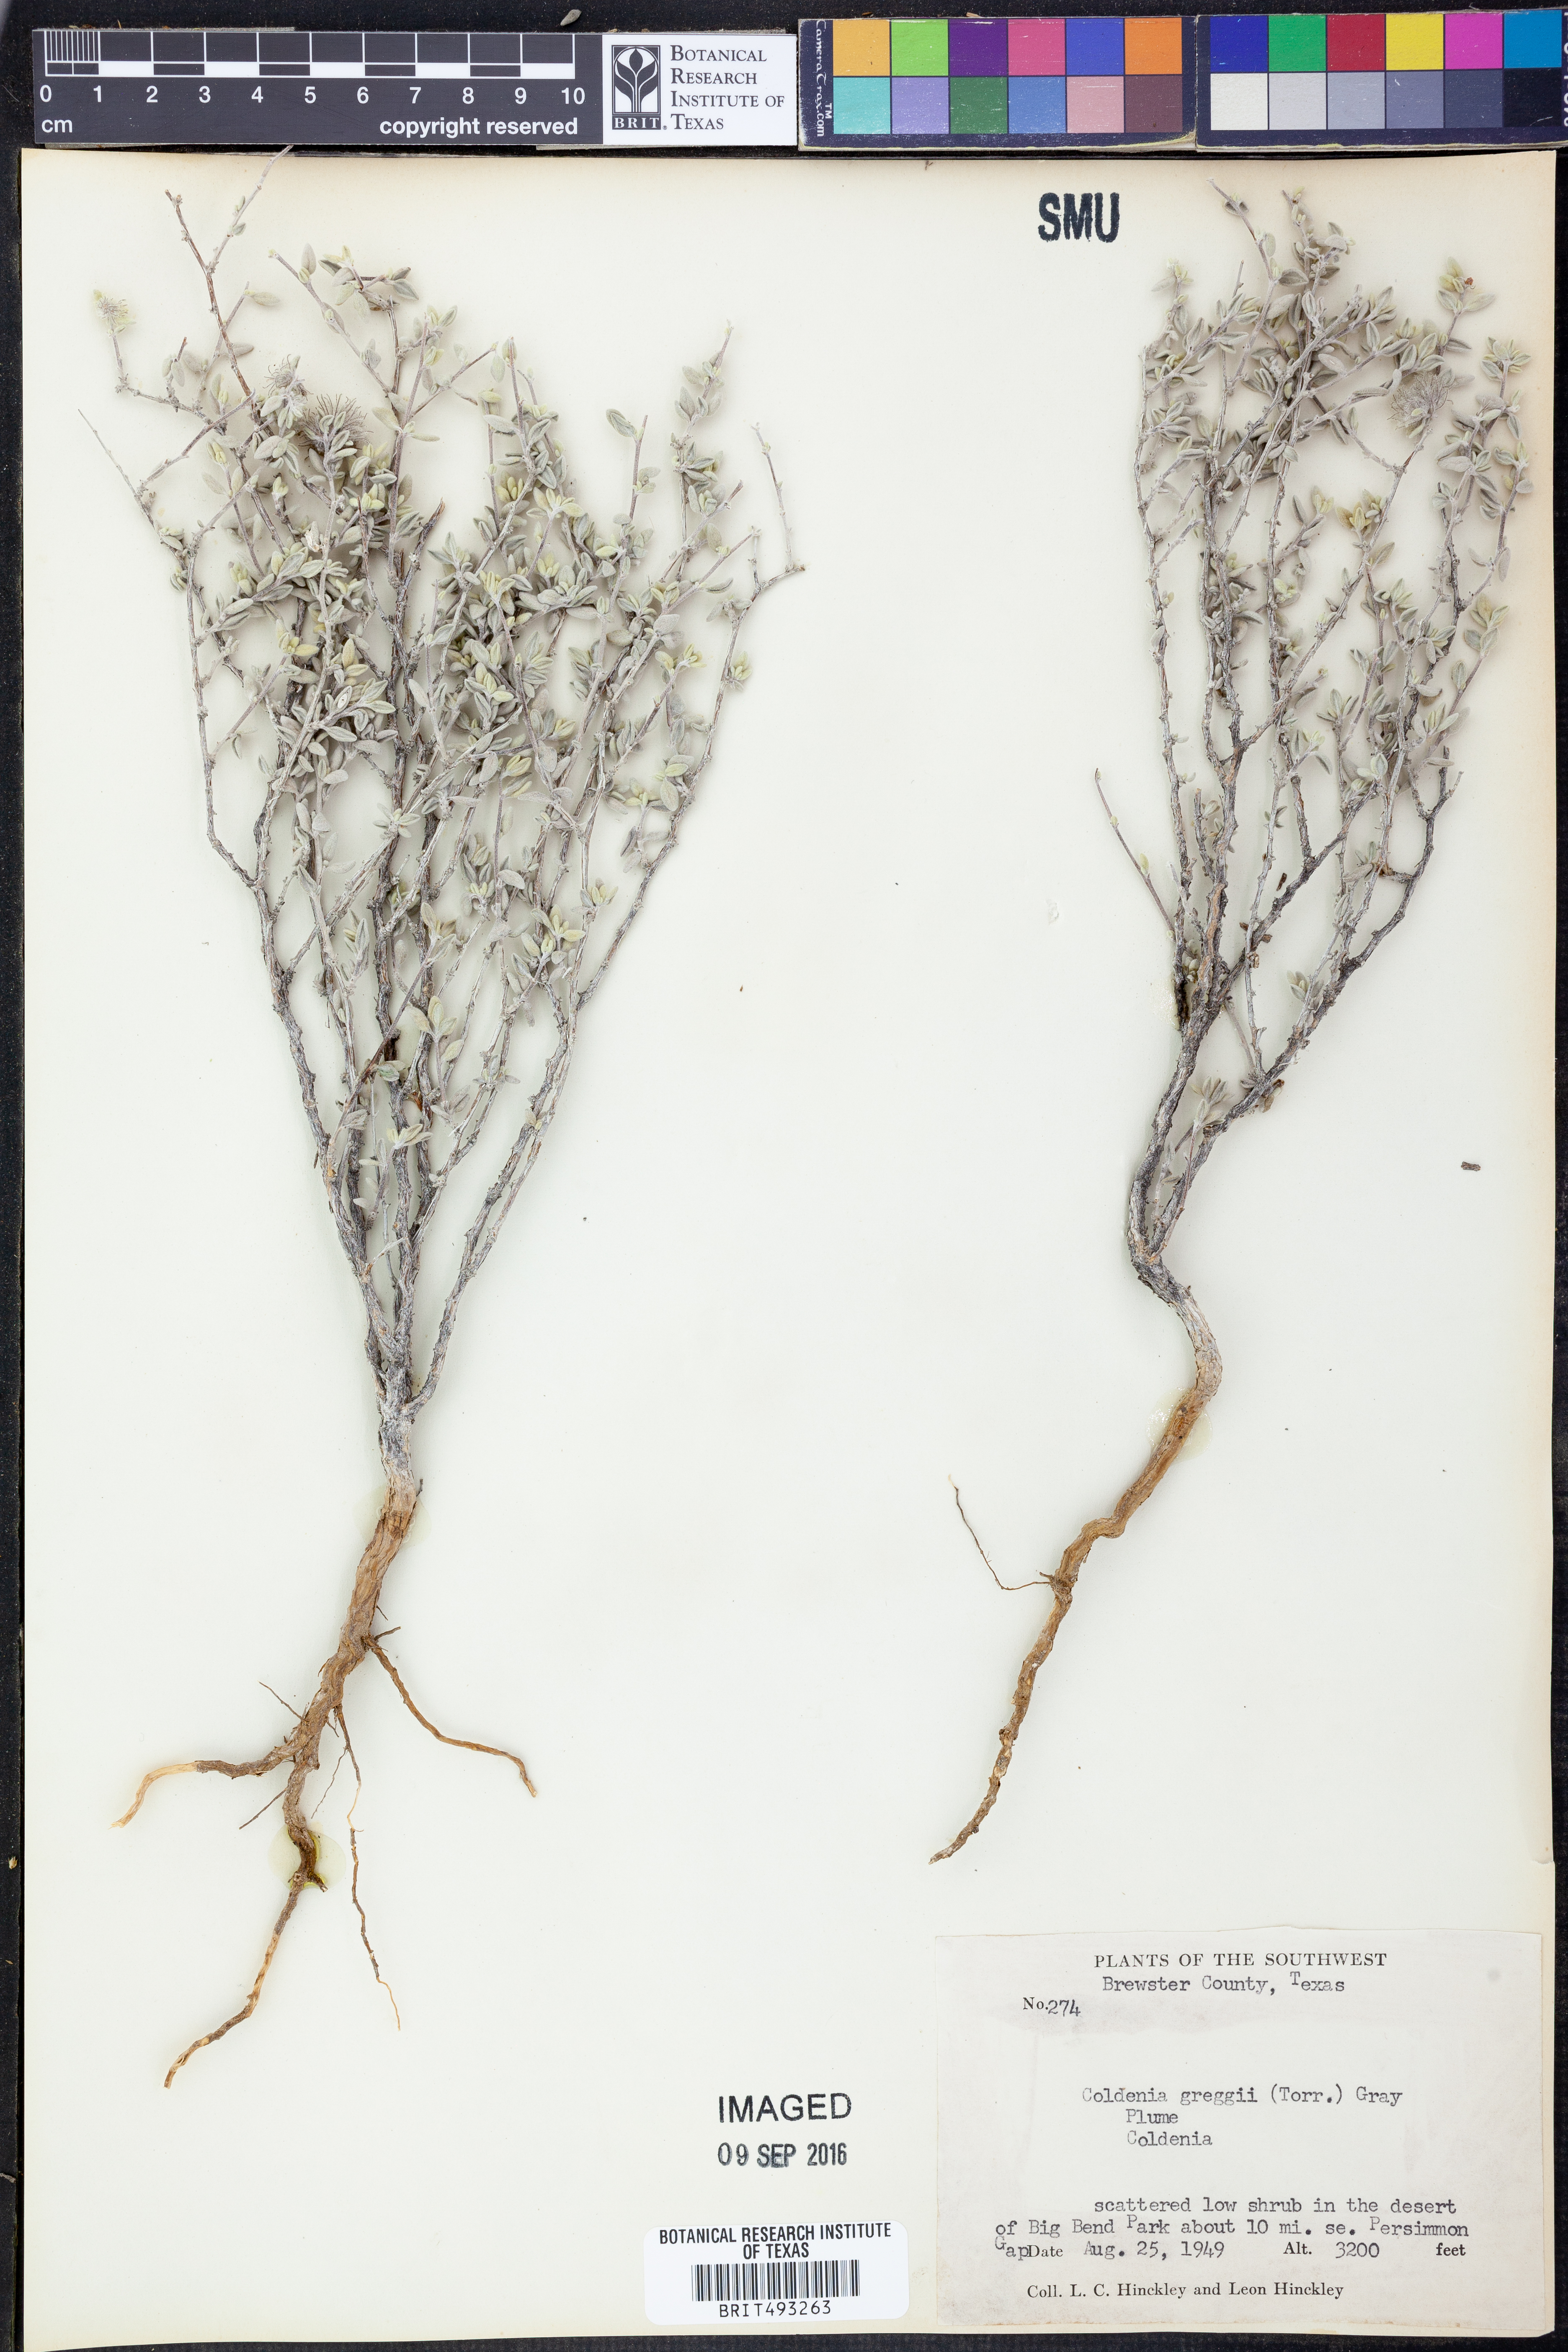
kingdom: Plantae
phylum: Tracheophyta
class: Magnoliopsida
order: Boraginales
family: Ehretiaceae
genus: Tiquilia
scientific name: Tiquilia greggii
